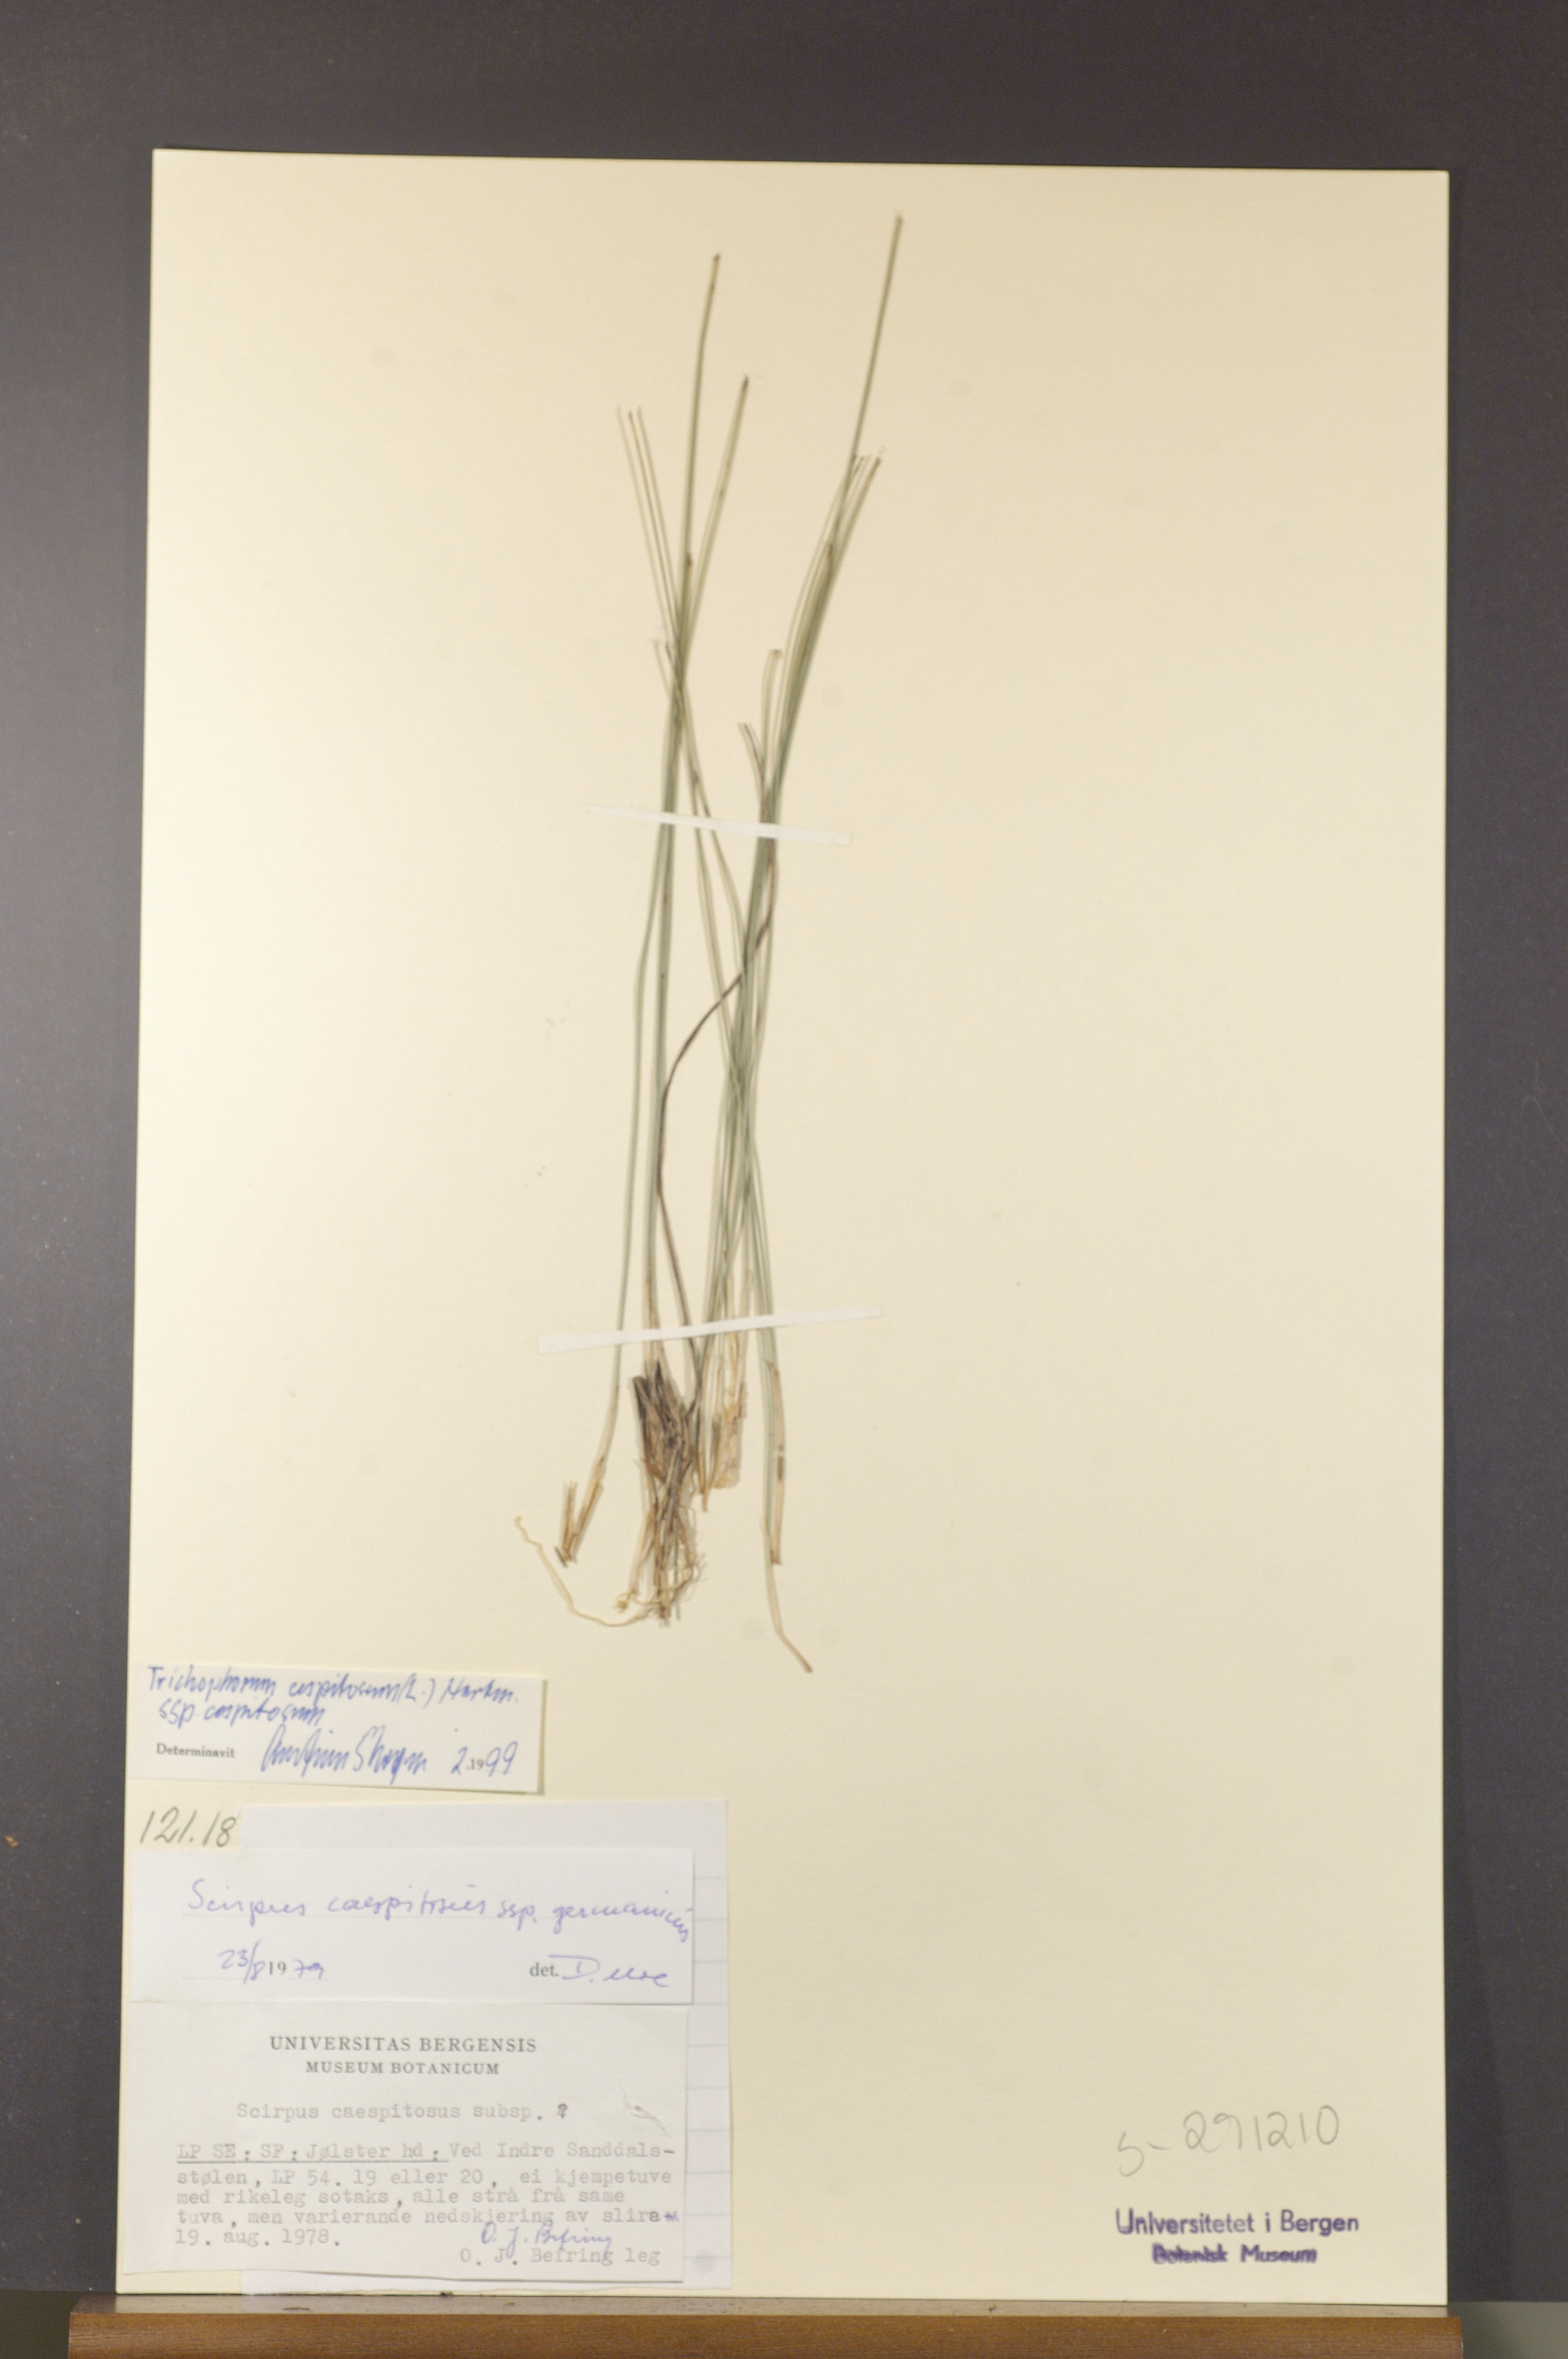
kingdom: Plantae
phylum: Tracheophyta
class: Liliopsida
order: Poales
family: Cyperaceae
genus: Trichophorum
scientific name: Trichophorum cespitosum
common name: Cespitose bulrush
